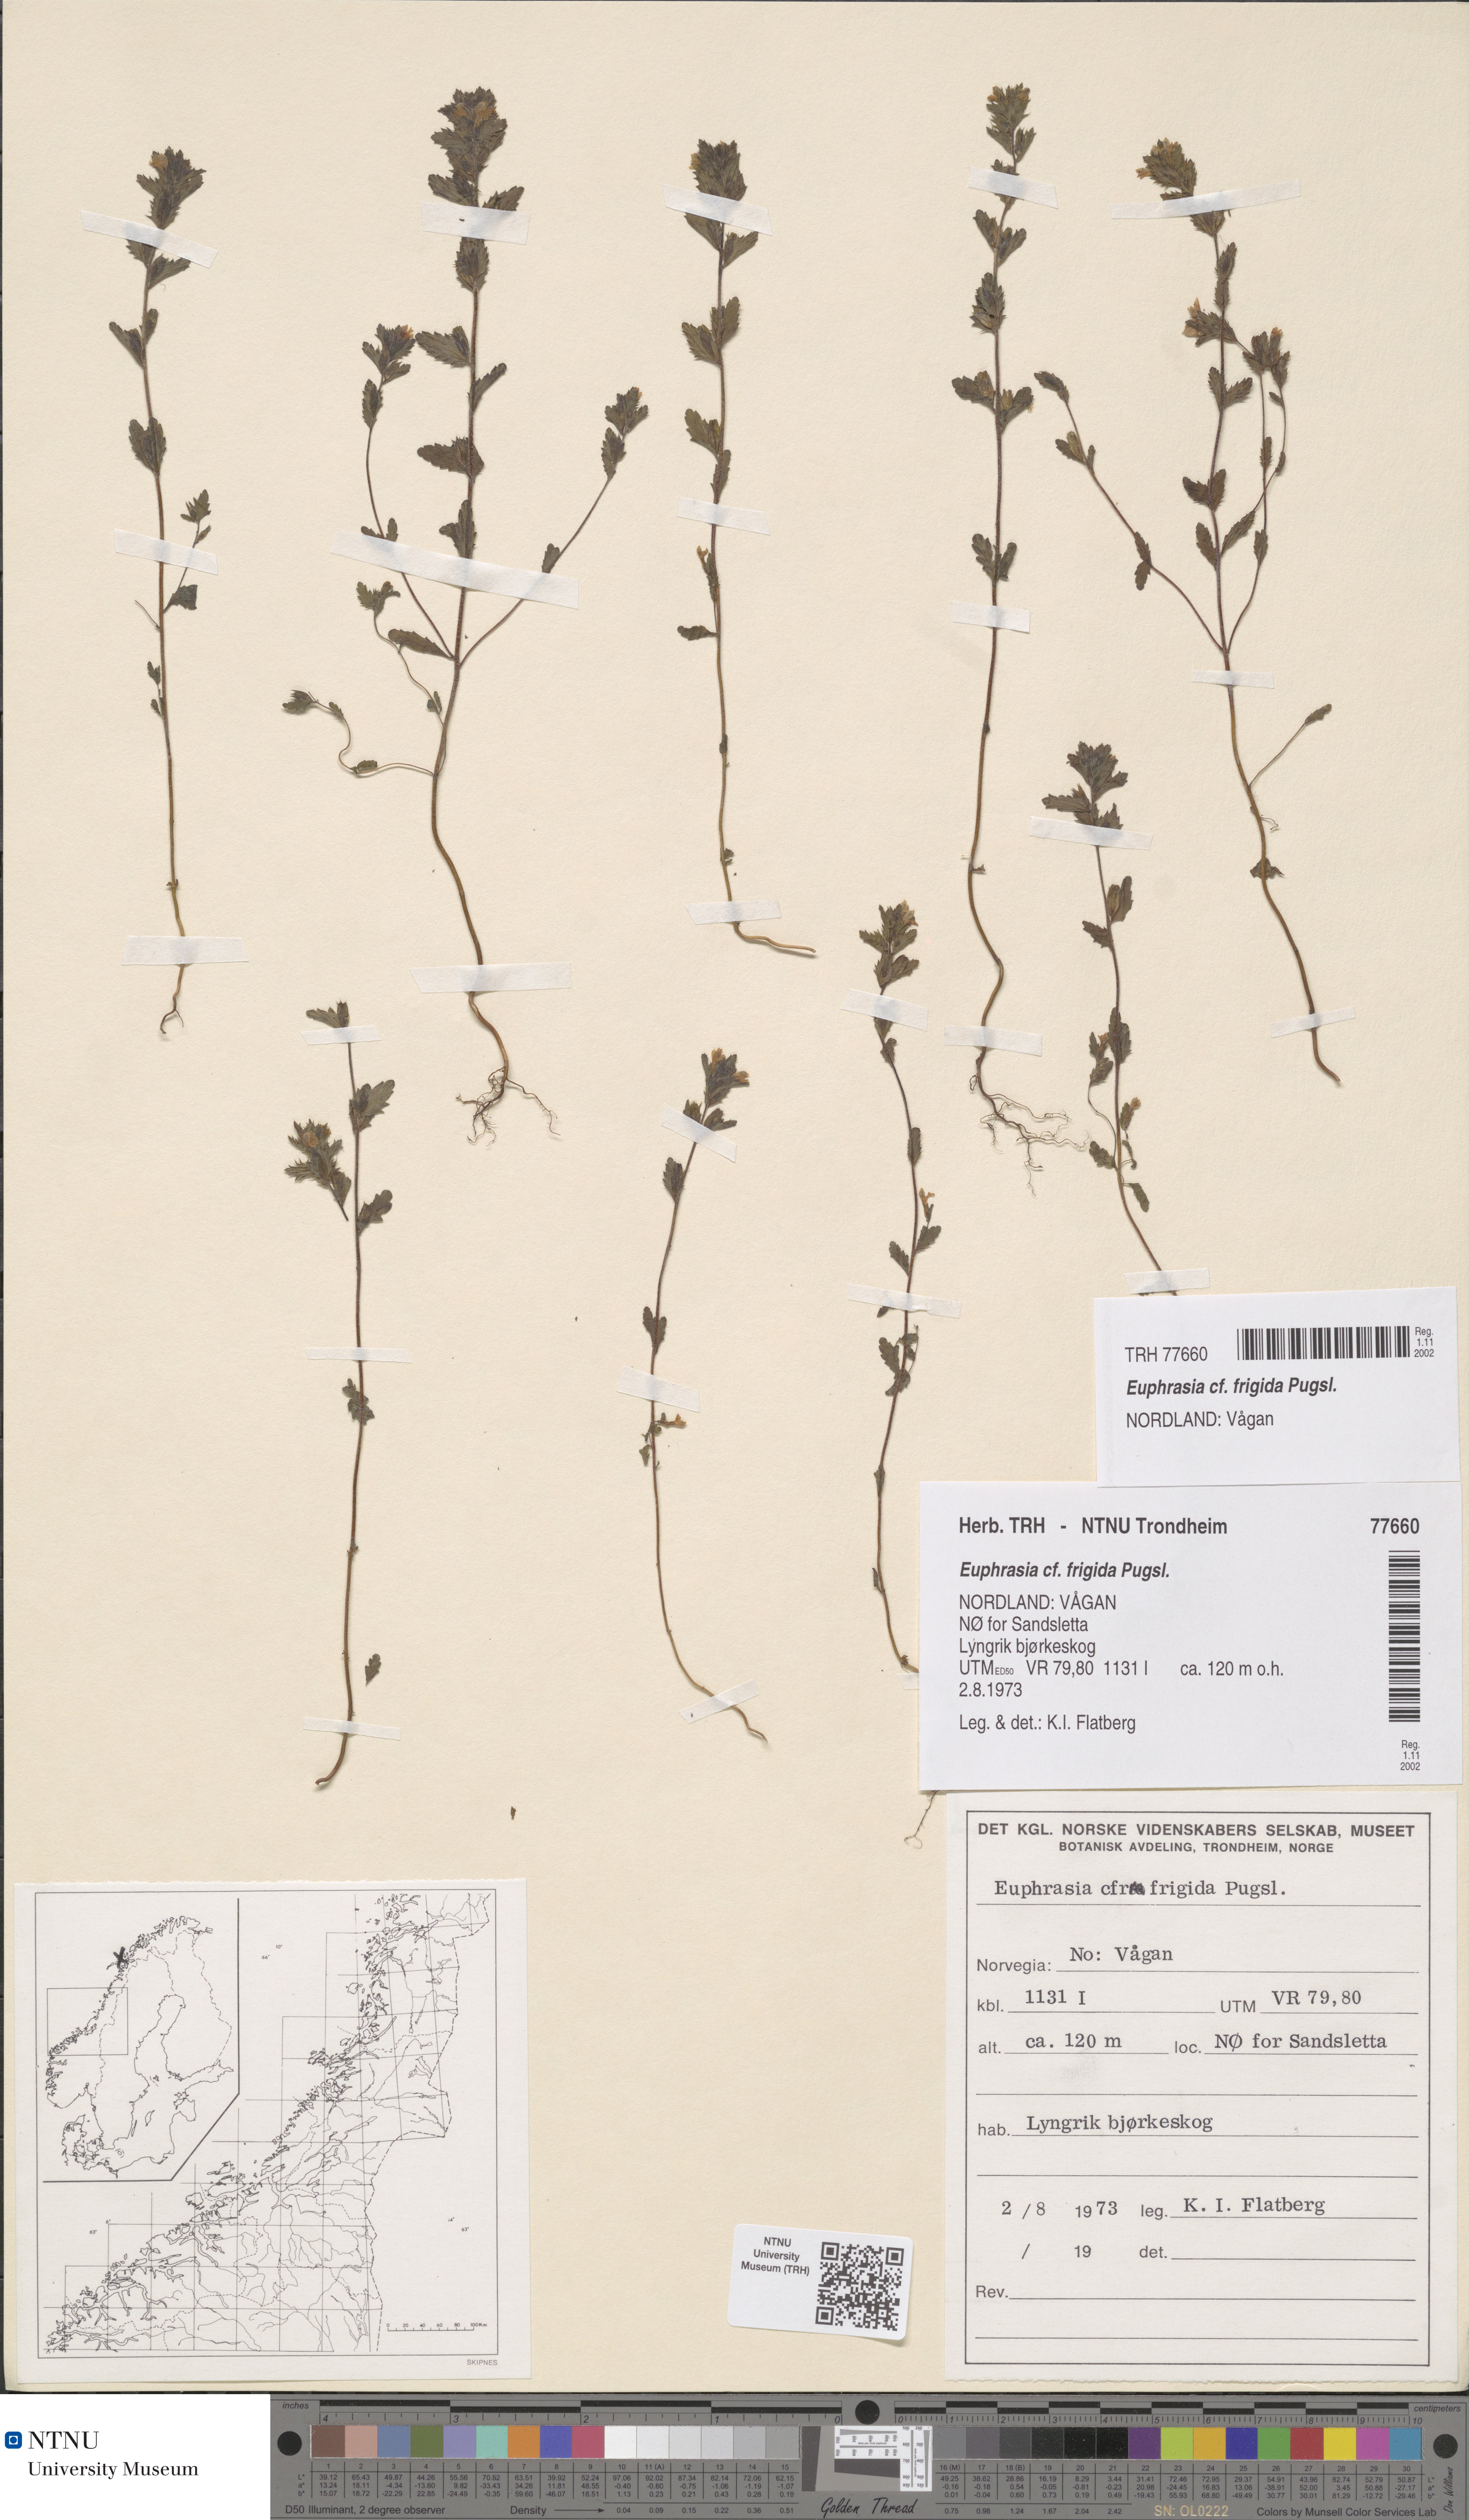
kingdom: Plantae
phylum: Tracheophyta
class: Magnoliopsida
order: Lamiales
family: Orobanchaceae
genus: Euphrasia
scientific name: Euphrasia wettsteinii
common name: Wettstein's eyebright
